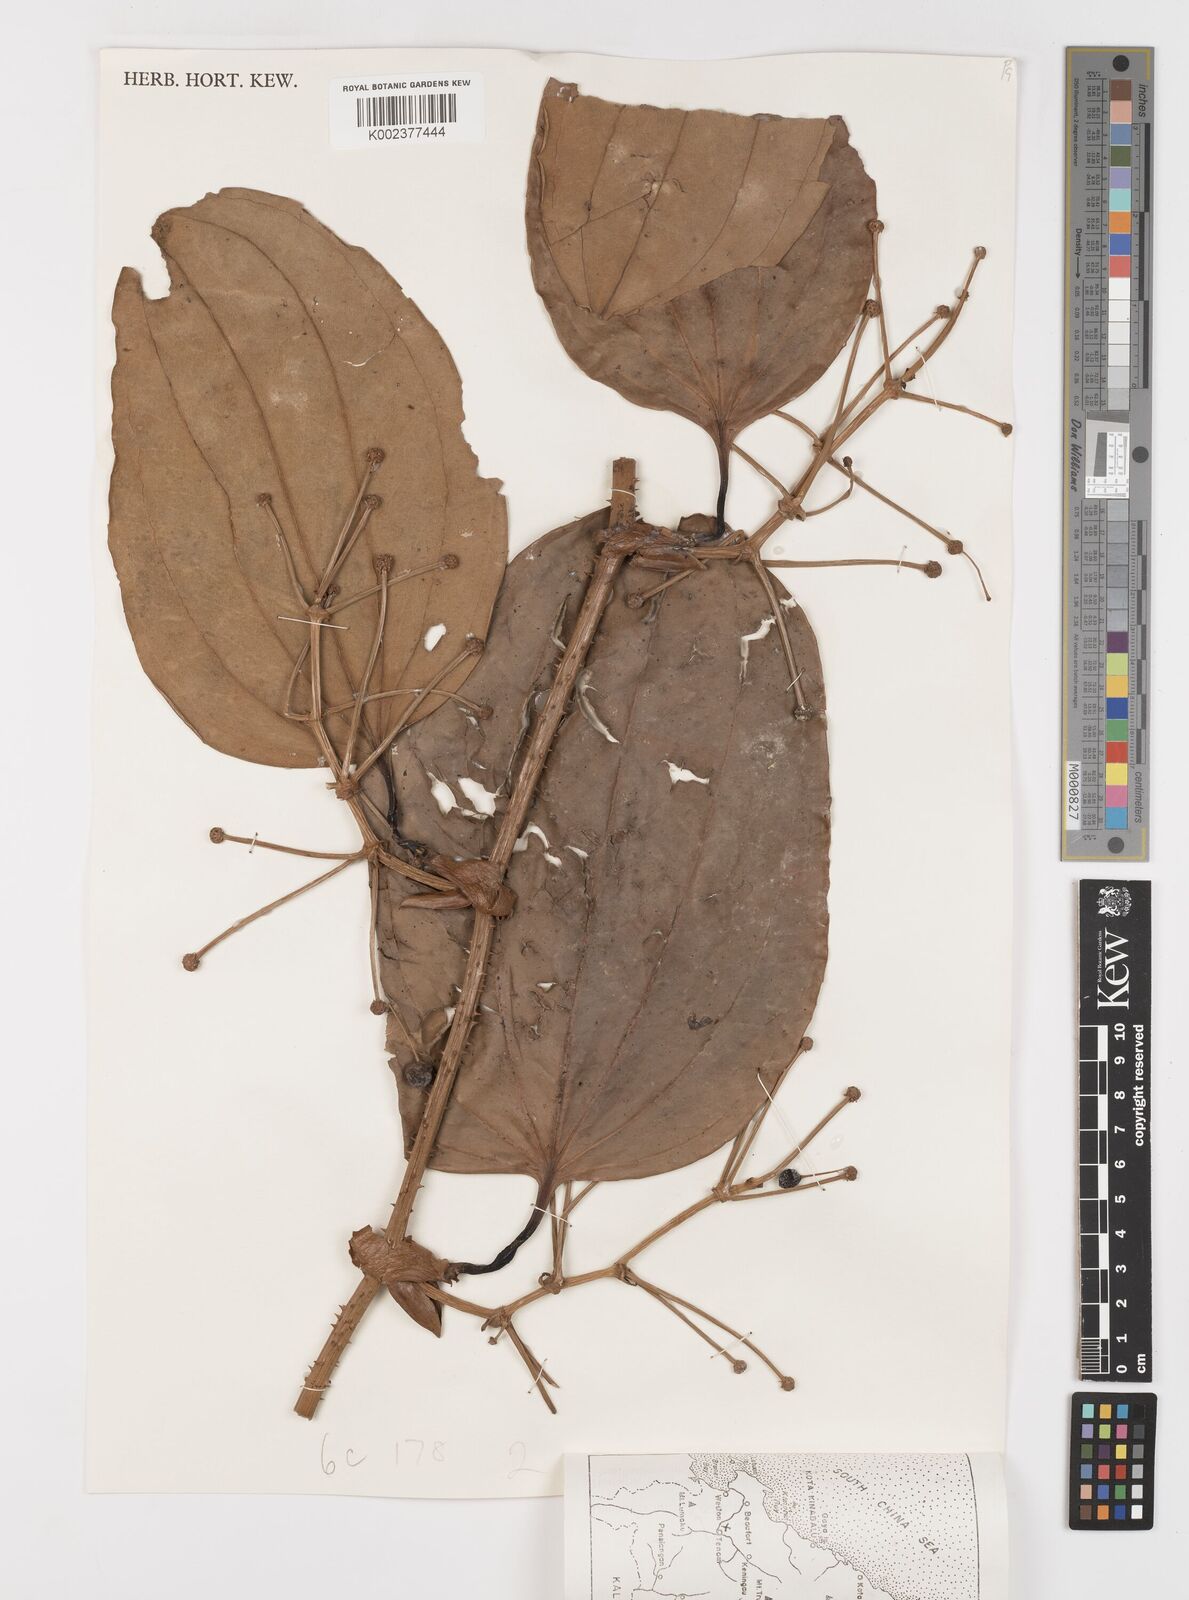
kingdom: Plantae
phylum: Tracheophyta
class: Liliopsida
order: Liliales
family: Smilacaceae
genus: Smilax
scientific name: Smilax borneensis
